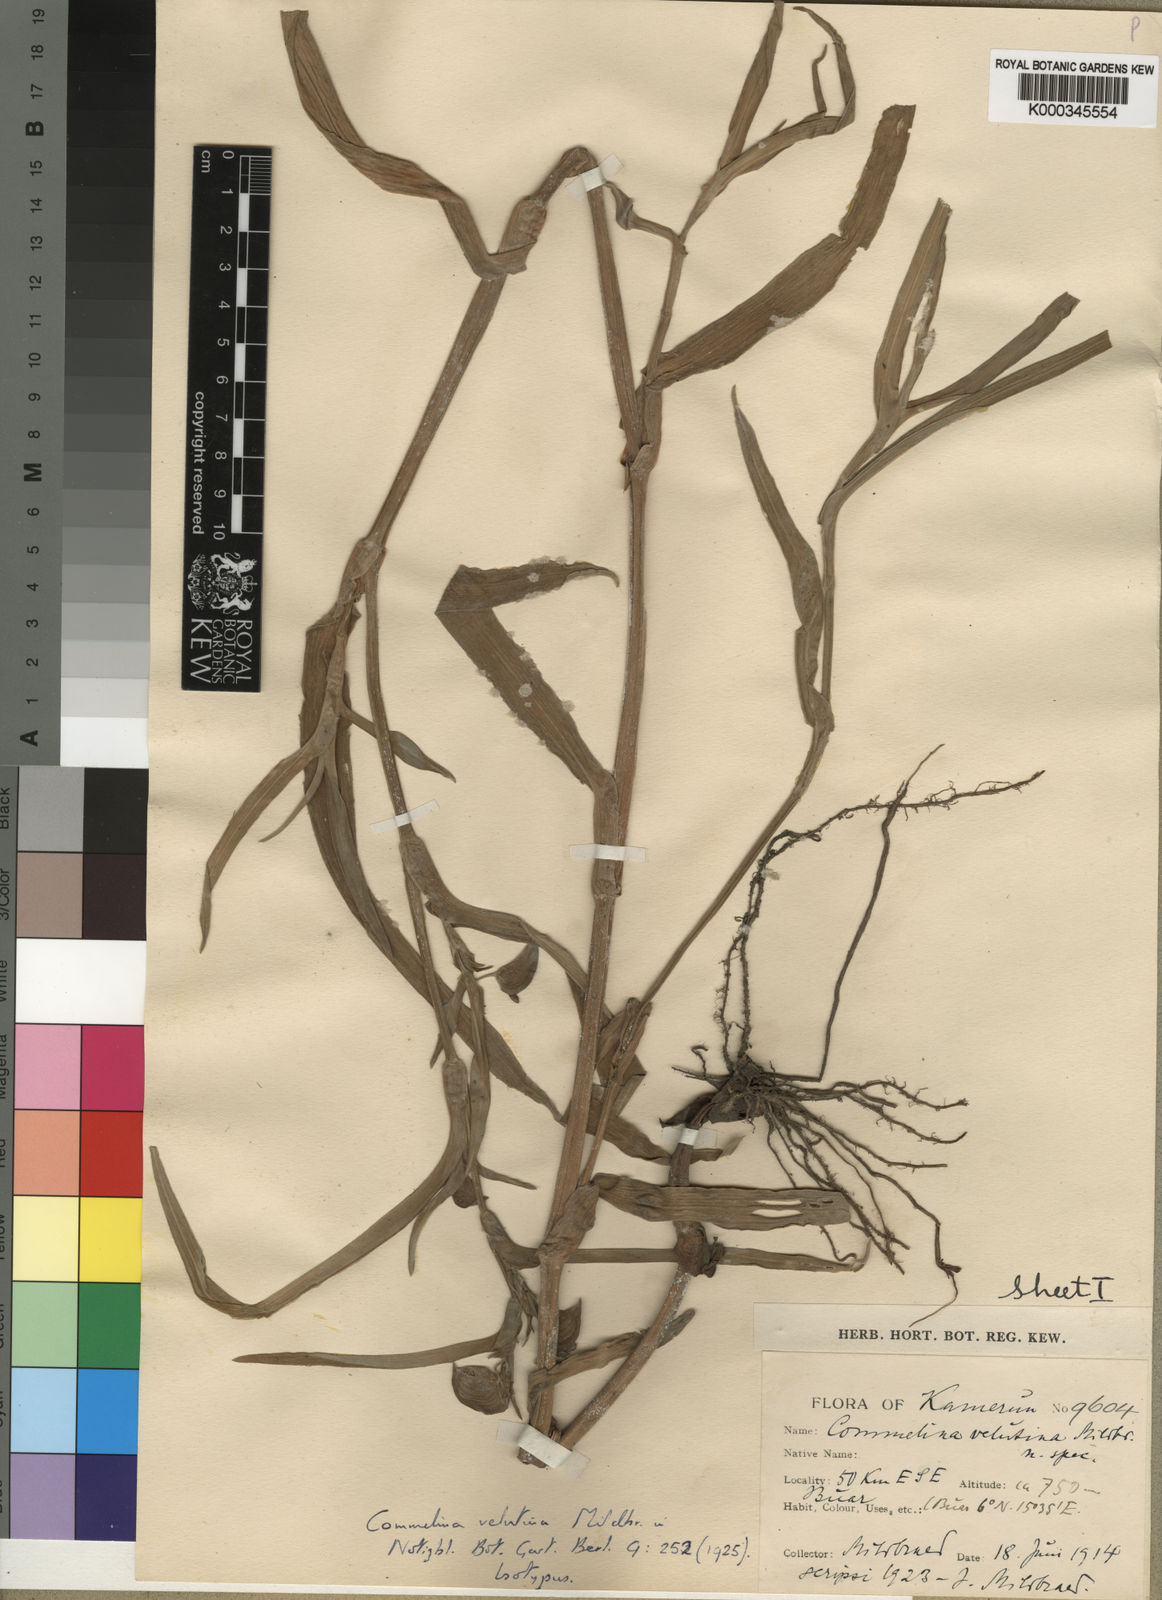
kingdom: Plantae
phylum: Tracheophyta
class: Liliopsida
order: Commelinales
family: Commelinaceae
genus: Commelina
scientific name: Commelina velutina
